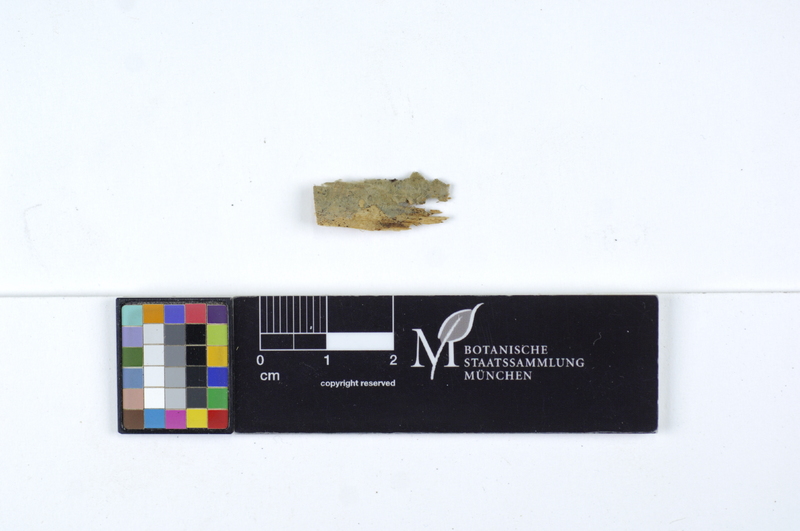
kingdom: Fungi
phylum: Basidiomycota
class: Agaricomycetes
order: Atheliales
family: Atheliaceae
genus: Byssocorticium
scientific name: Byssocorticium atrovirens
